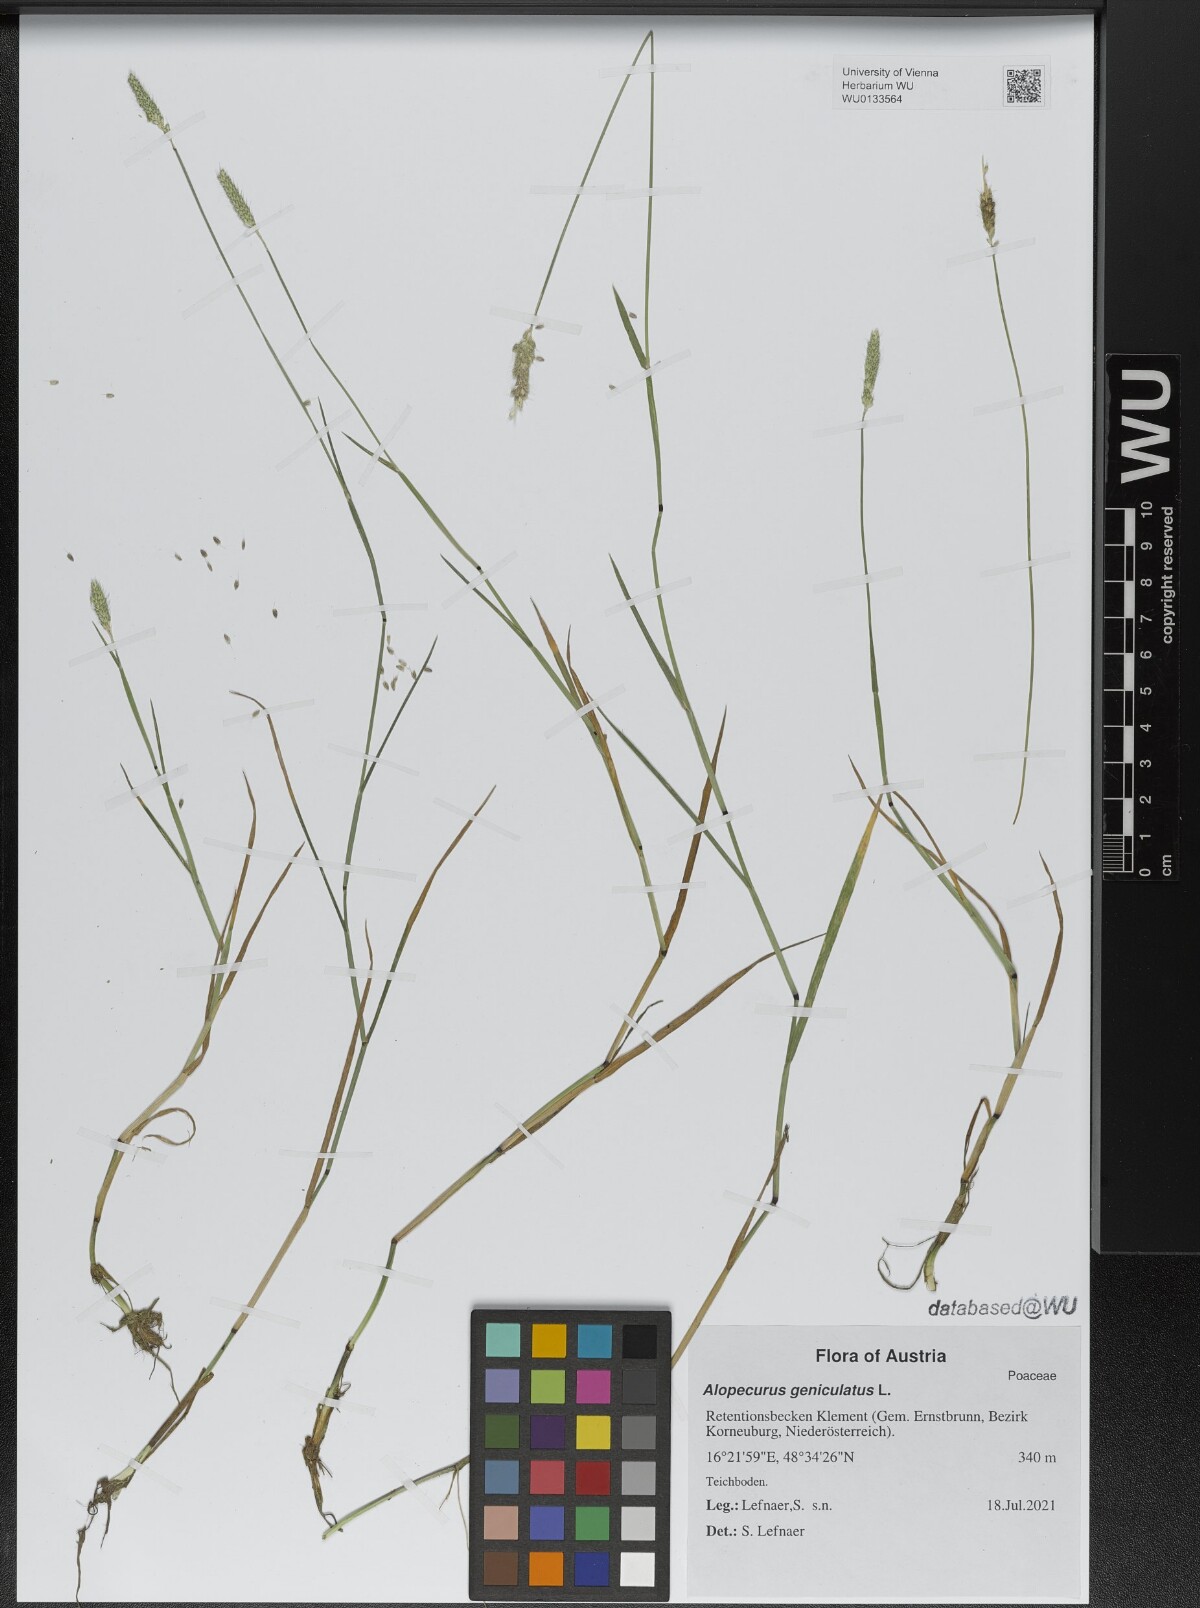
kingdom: Plantae
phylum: Tracheophyta
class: Liliopsida
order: Poales
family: Poaceae
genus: Alopecurus
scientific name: Alopecurus geniculatus
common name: Water foxtail
